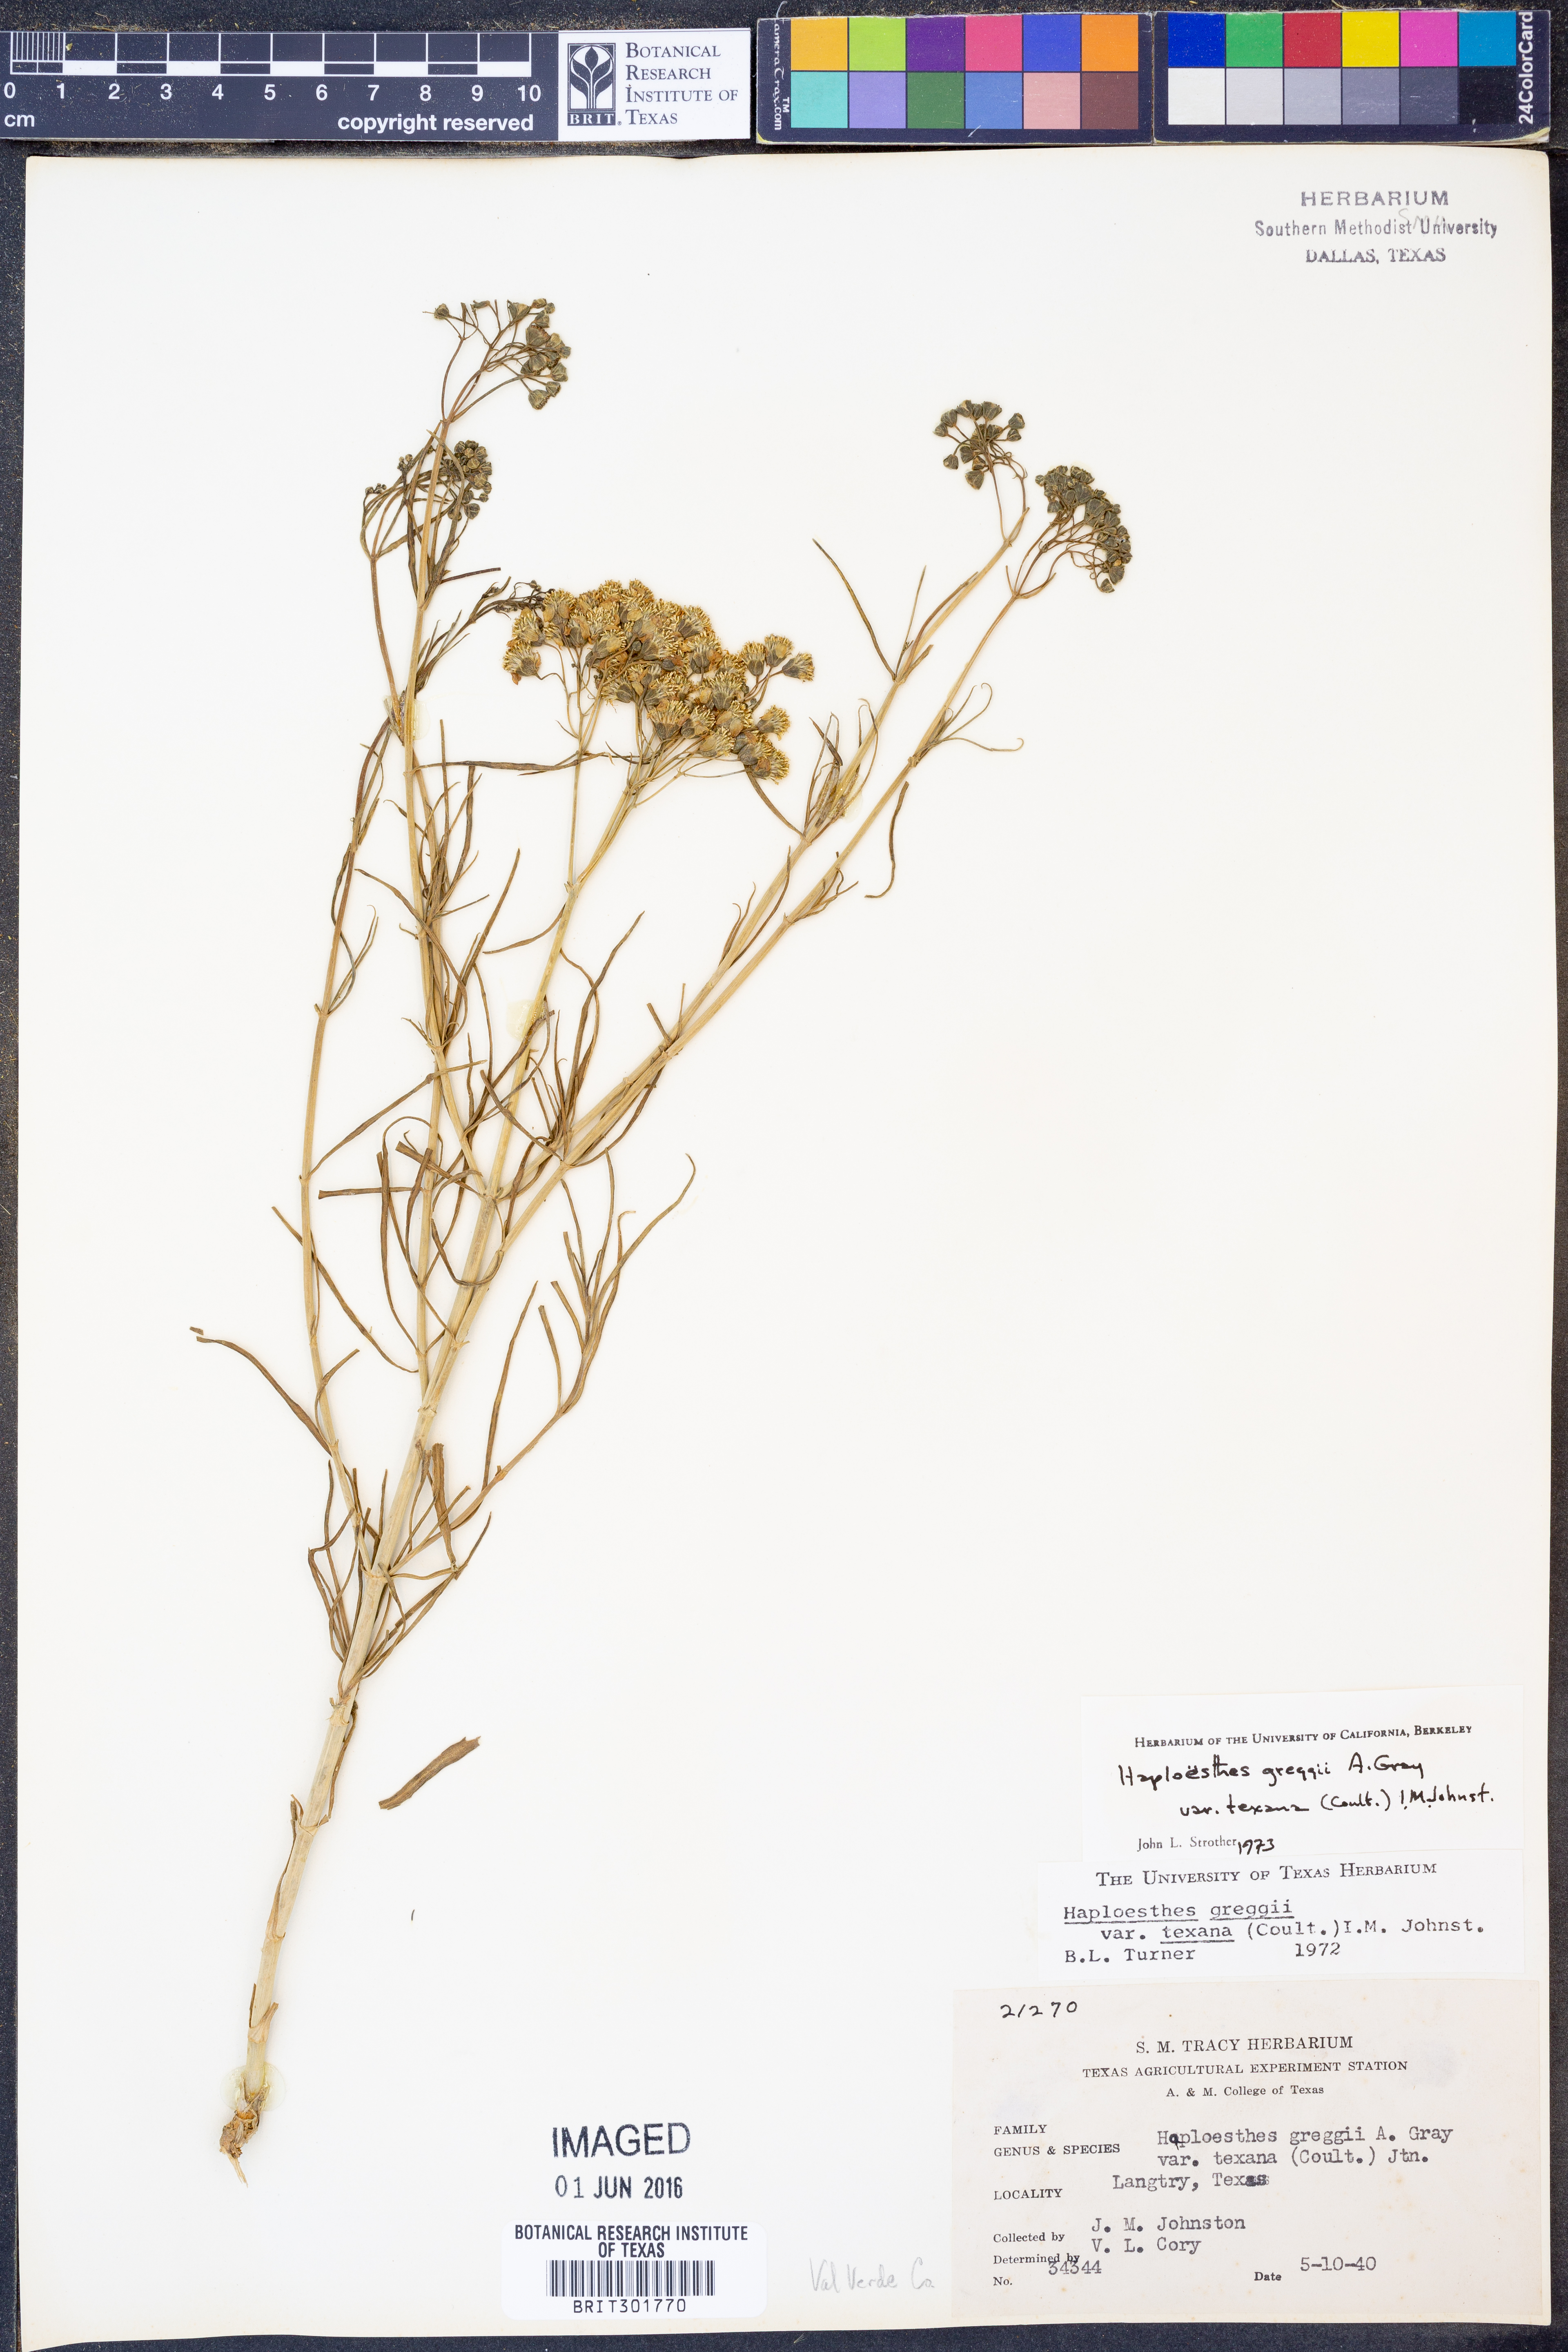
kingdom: Plantae
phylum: Tracheophyta
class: Magnoliopsida
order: Asterales
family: Asteraceae
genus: Haploesthes
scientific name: Haploesthes greggii
